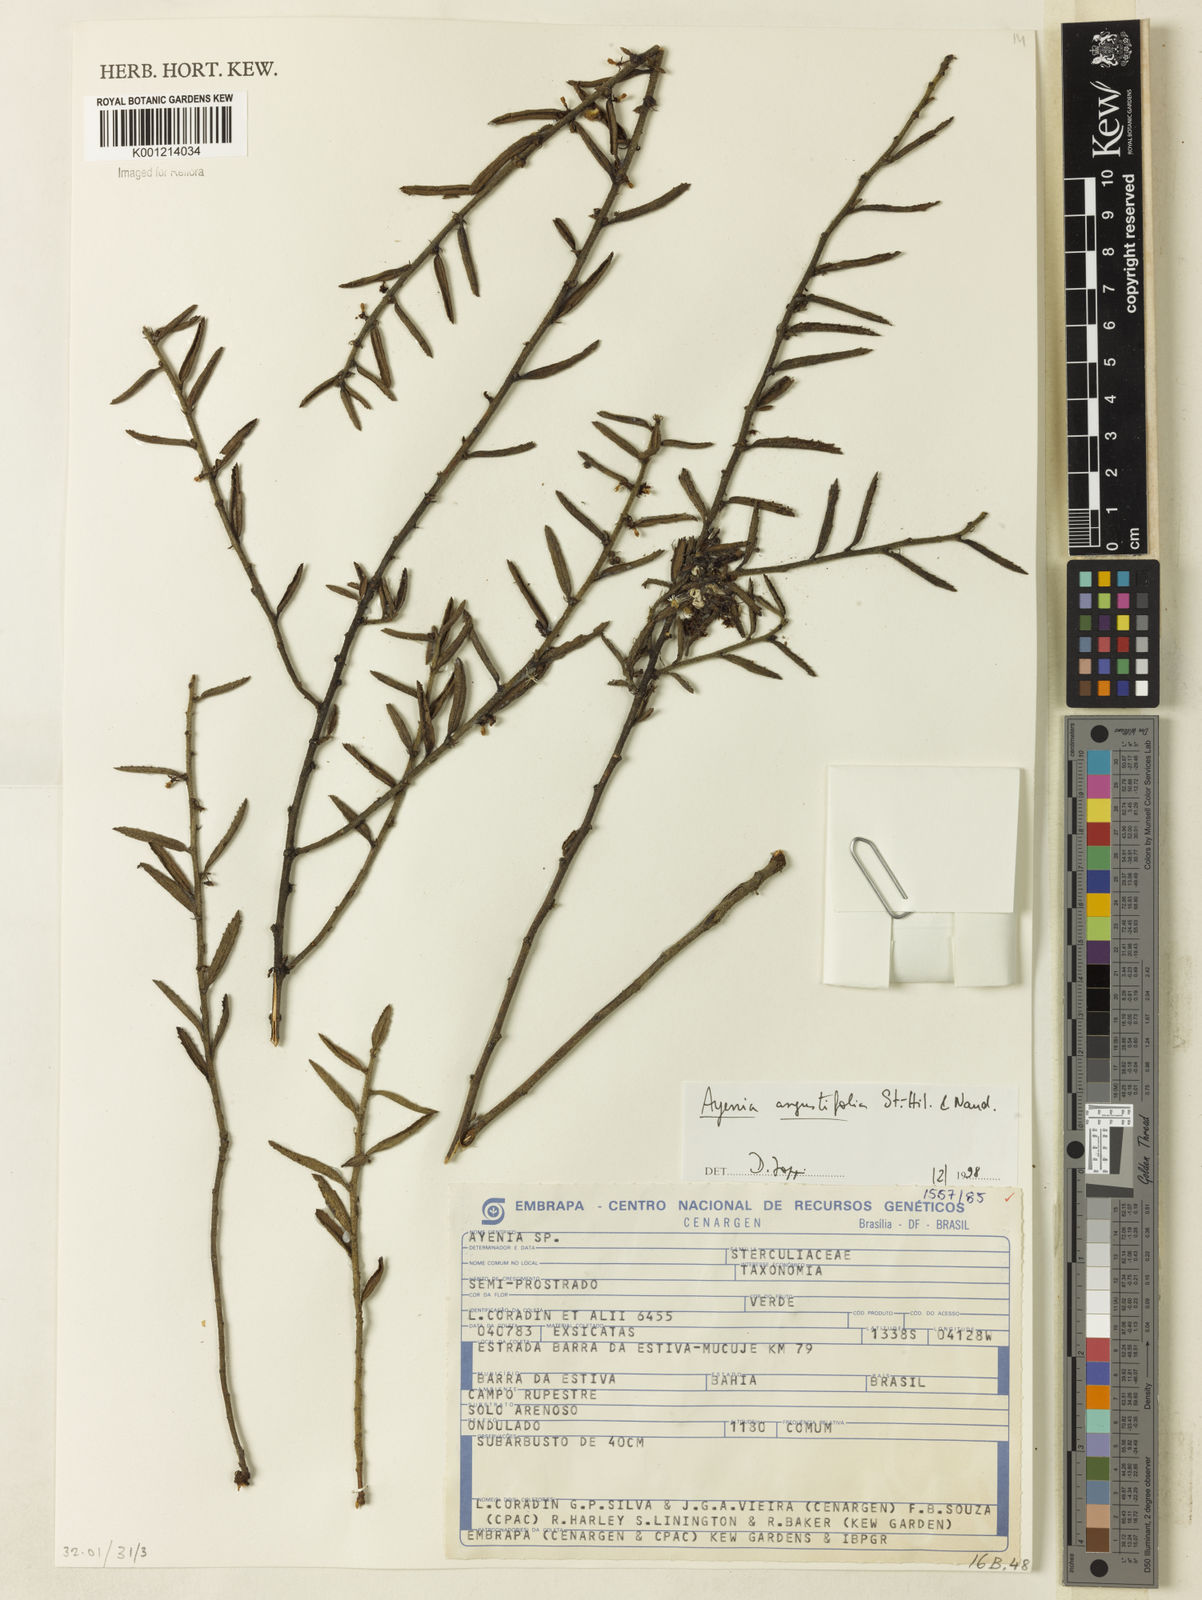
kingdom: Plantae
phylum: Tracheophyta
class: Magnoliopsida
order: Malvales
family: Malvaceae
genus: Ayenia
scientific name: Ayenia angustifolia
